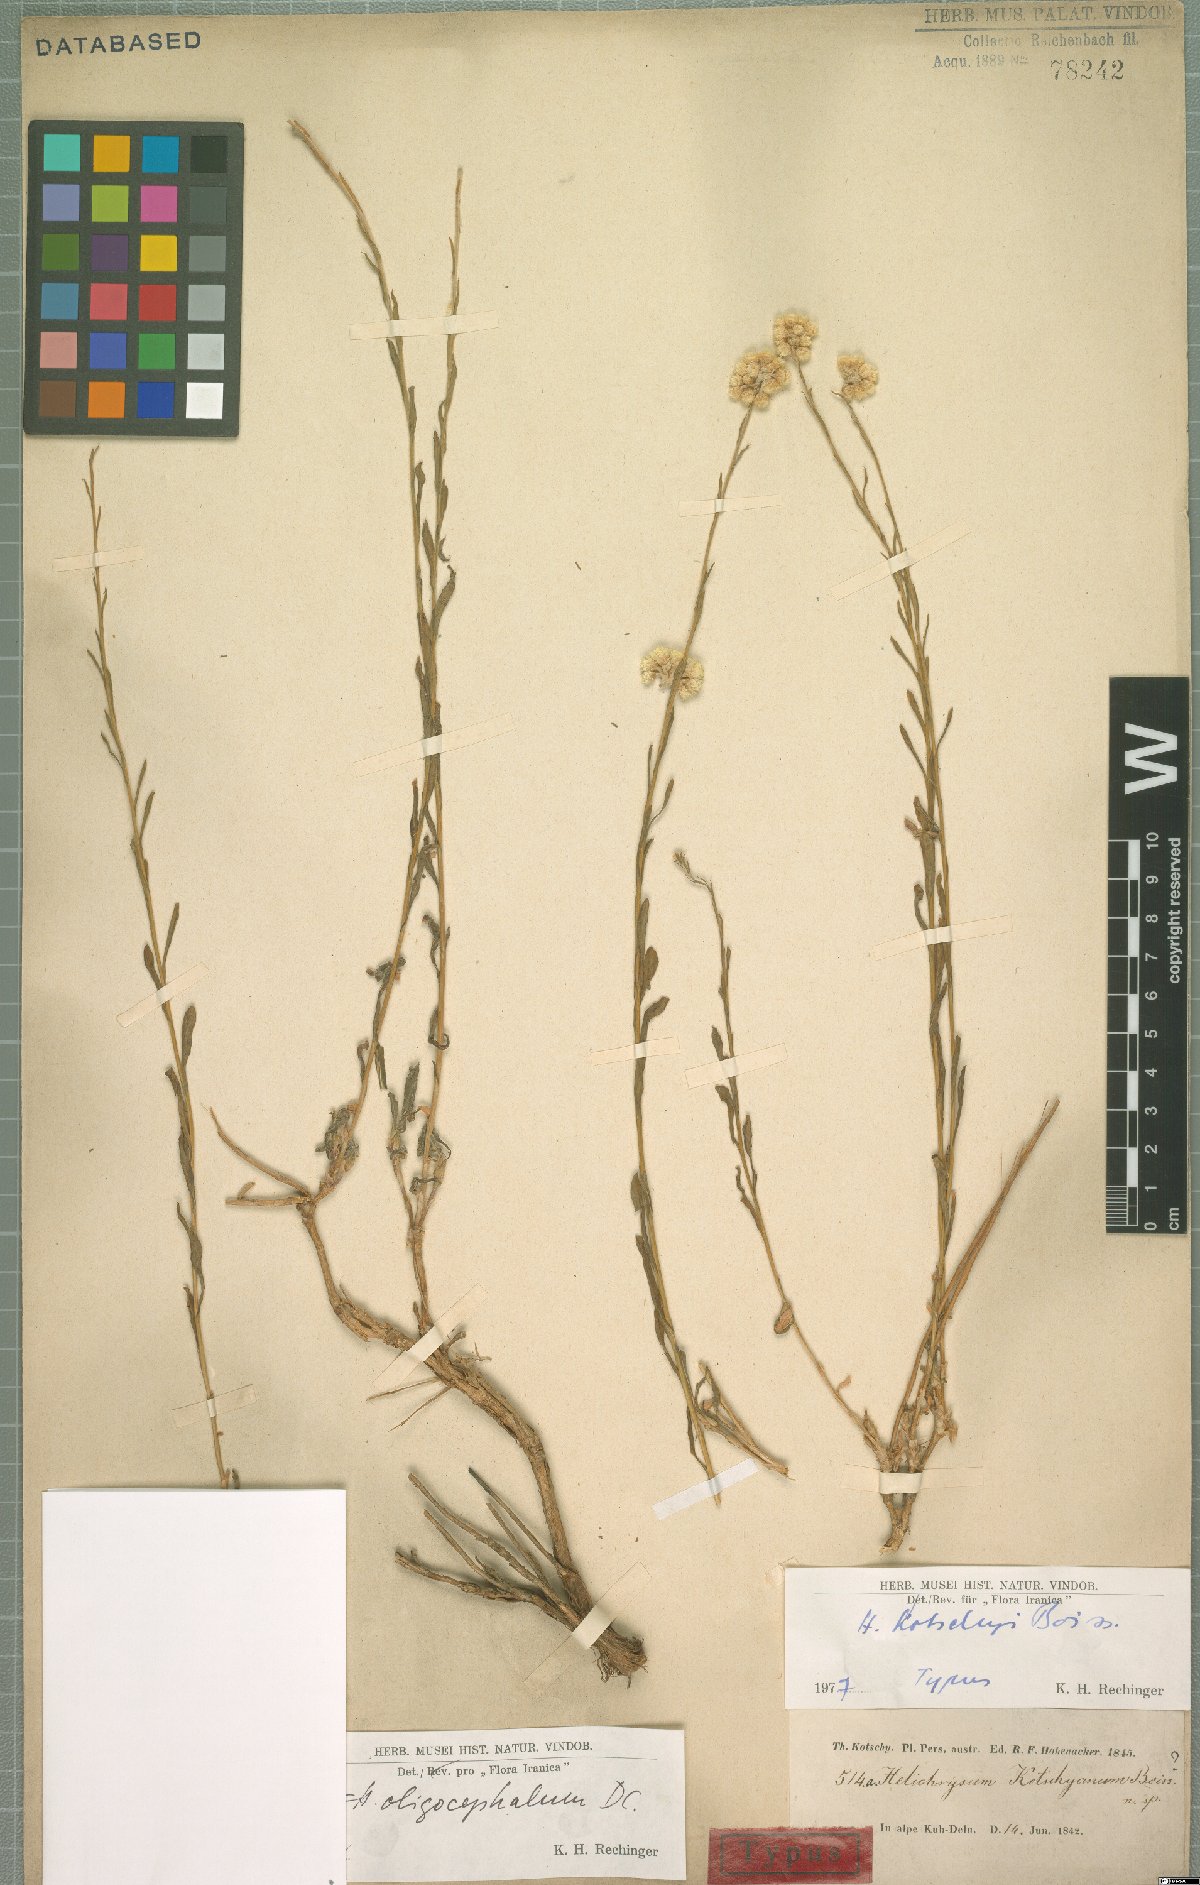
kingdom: Plantae
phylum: Tracheophyta
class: Magnoliopsida
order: Asterales
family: Asteraceae
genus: Helichrysum
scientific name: Helichrysum oligocephalum
